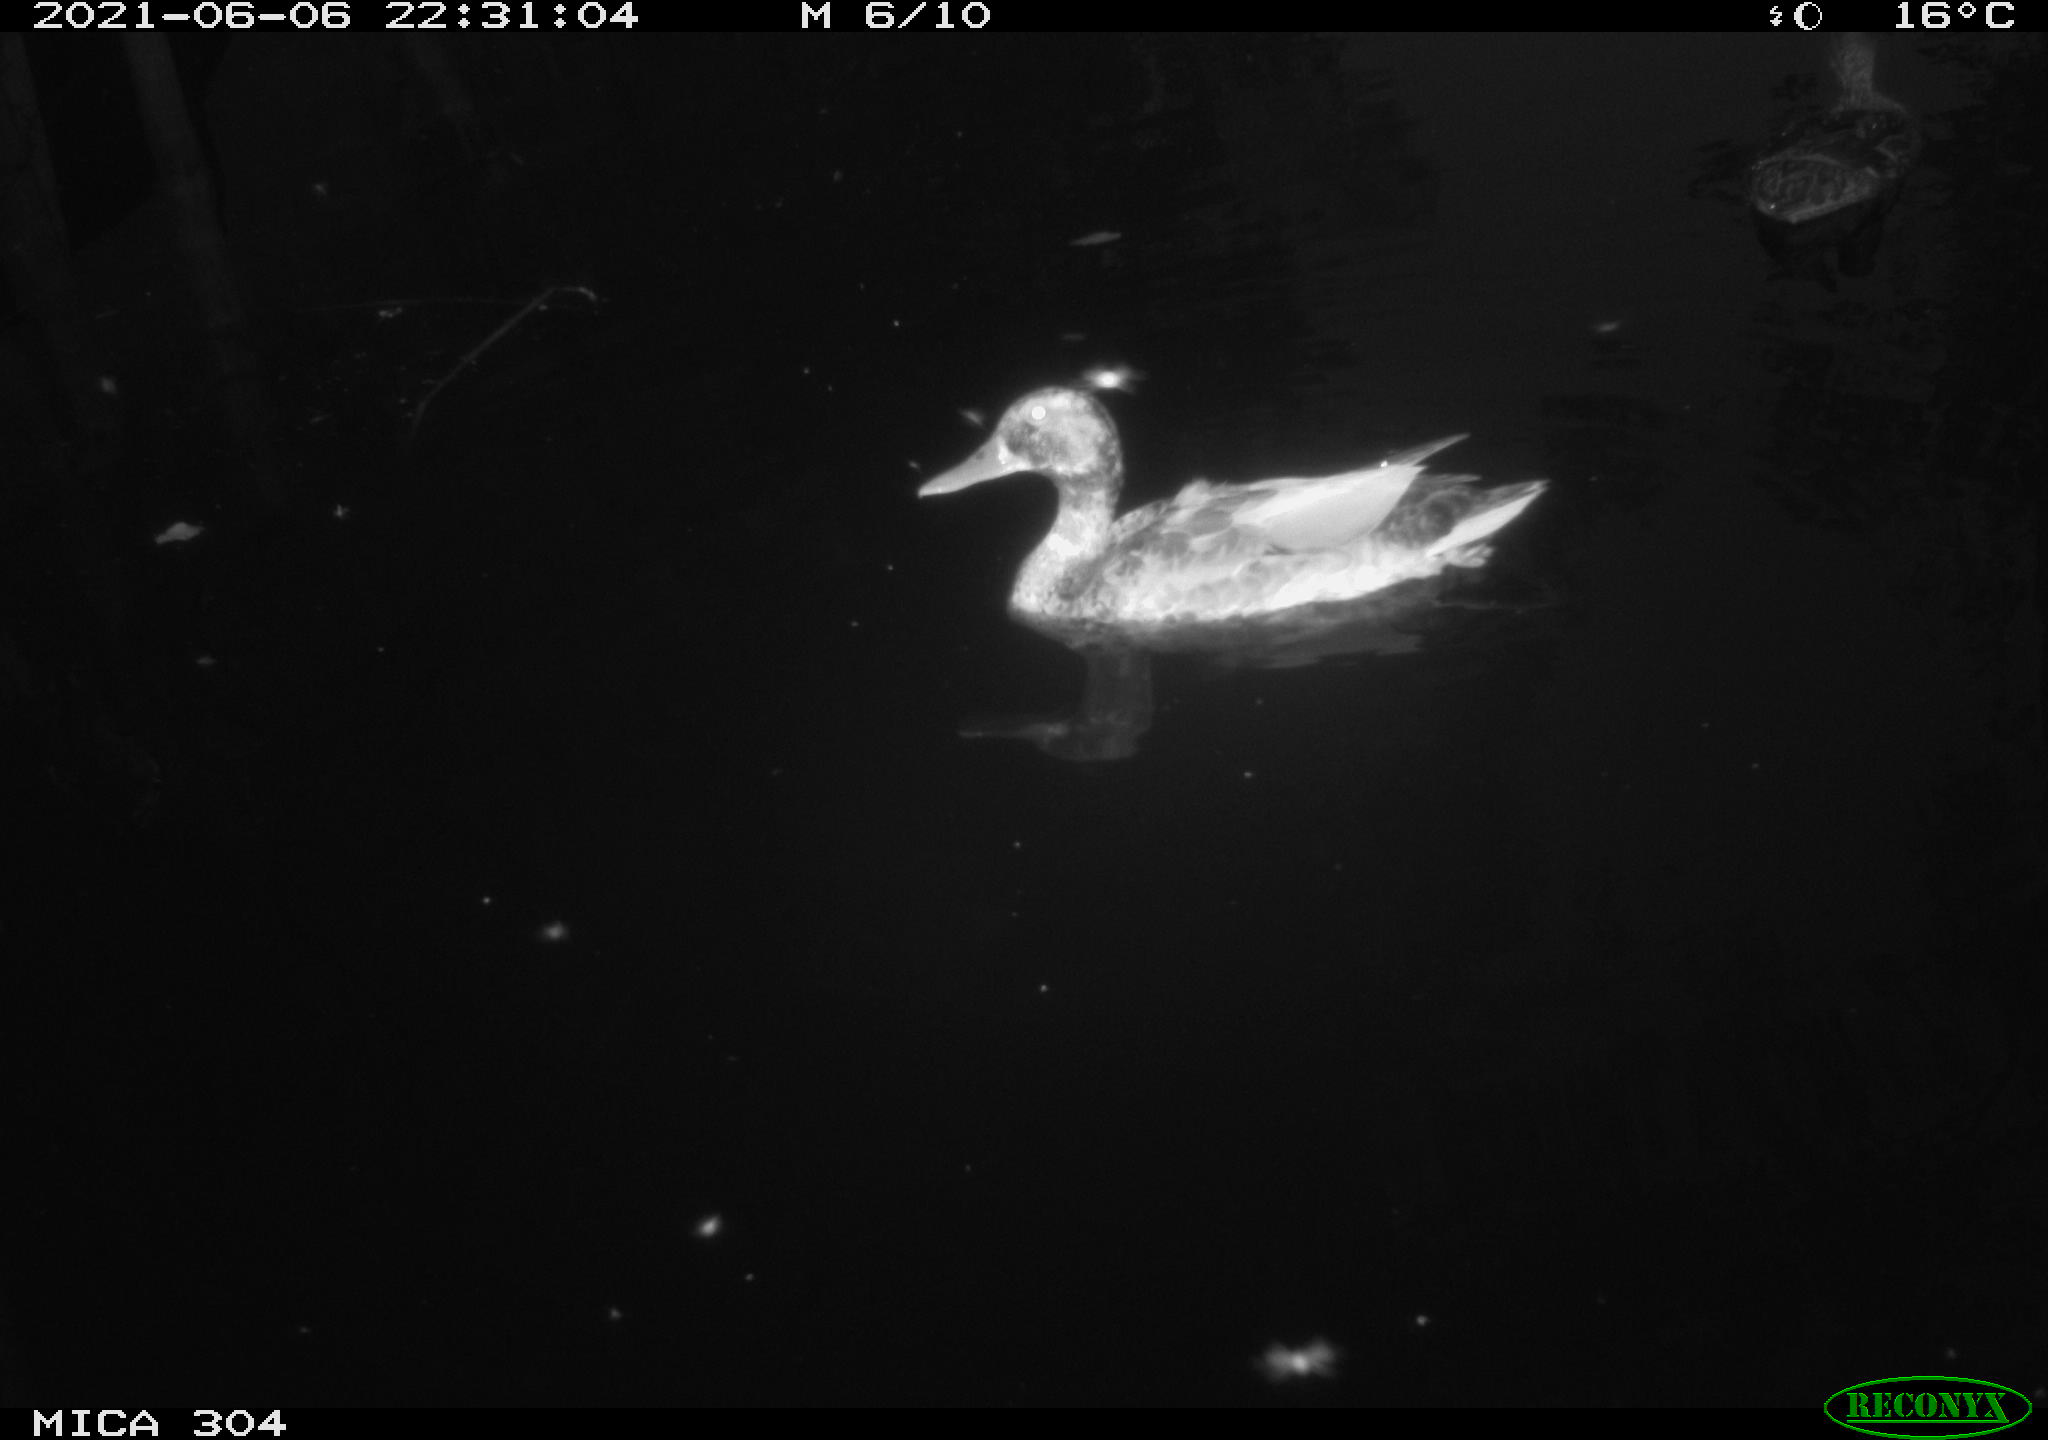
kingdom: Animalia
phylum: Chordata
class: Aves
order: Anseriformes
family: Anatidae
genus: Anas
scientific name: Anas platyrhynchos
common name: Mallard
